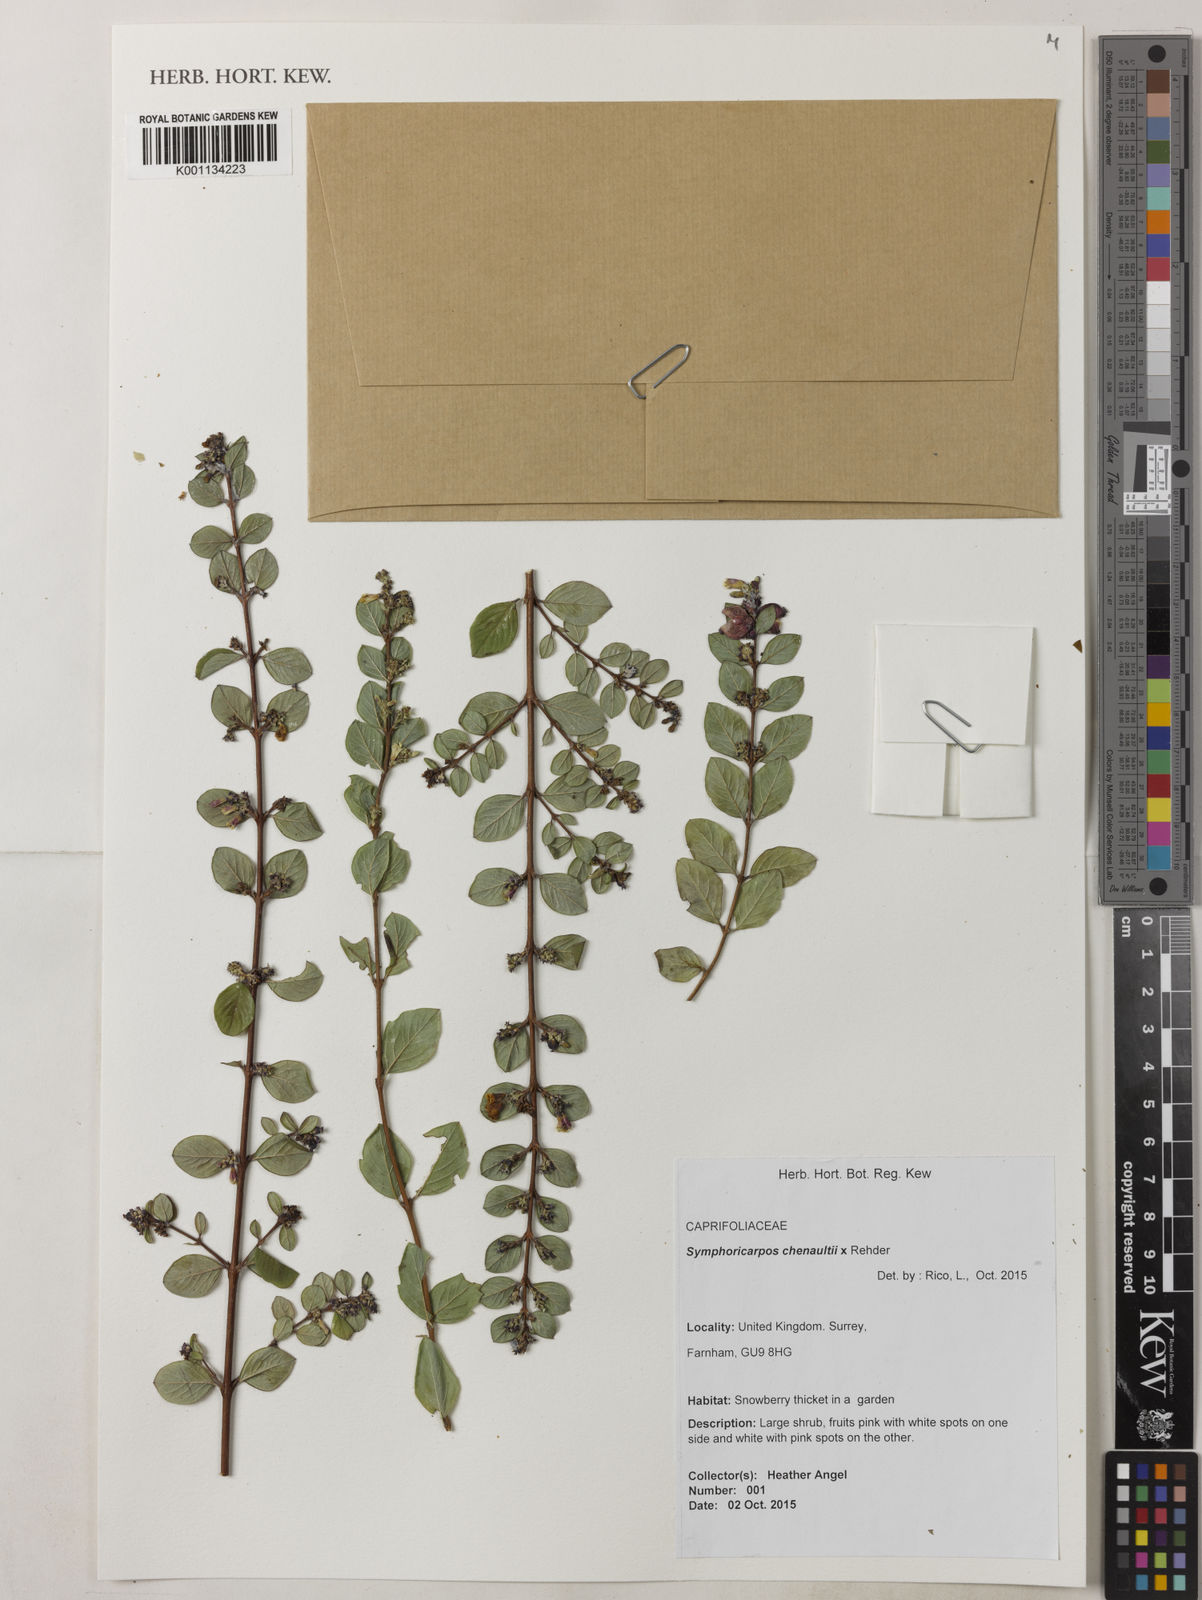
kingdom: Plantae
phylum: Tracheophyta
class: Magnoliopsida
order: Dipsacales
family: Caprifoliaceae
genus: Symphoricarpos
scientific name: Symphoricarpos chenaultii
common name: Hybrid coralberry
